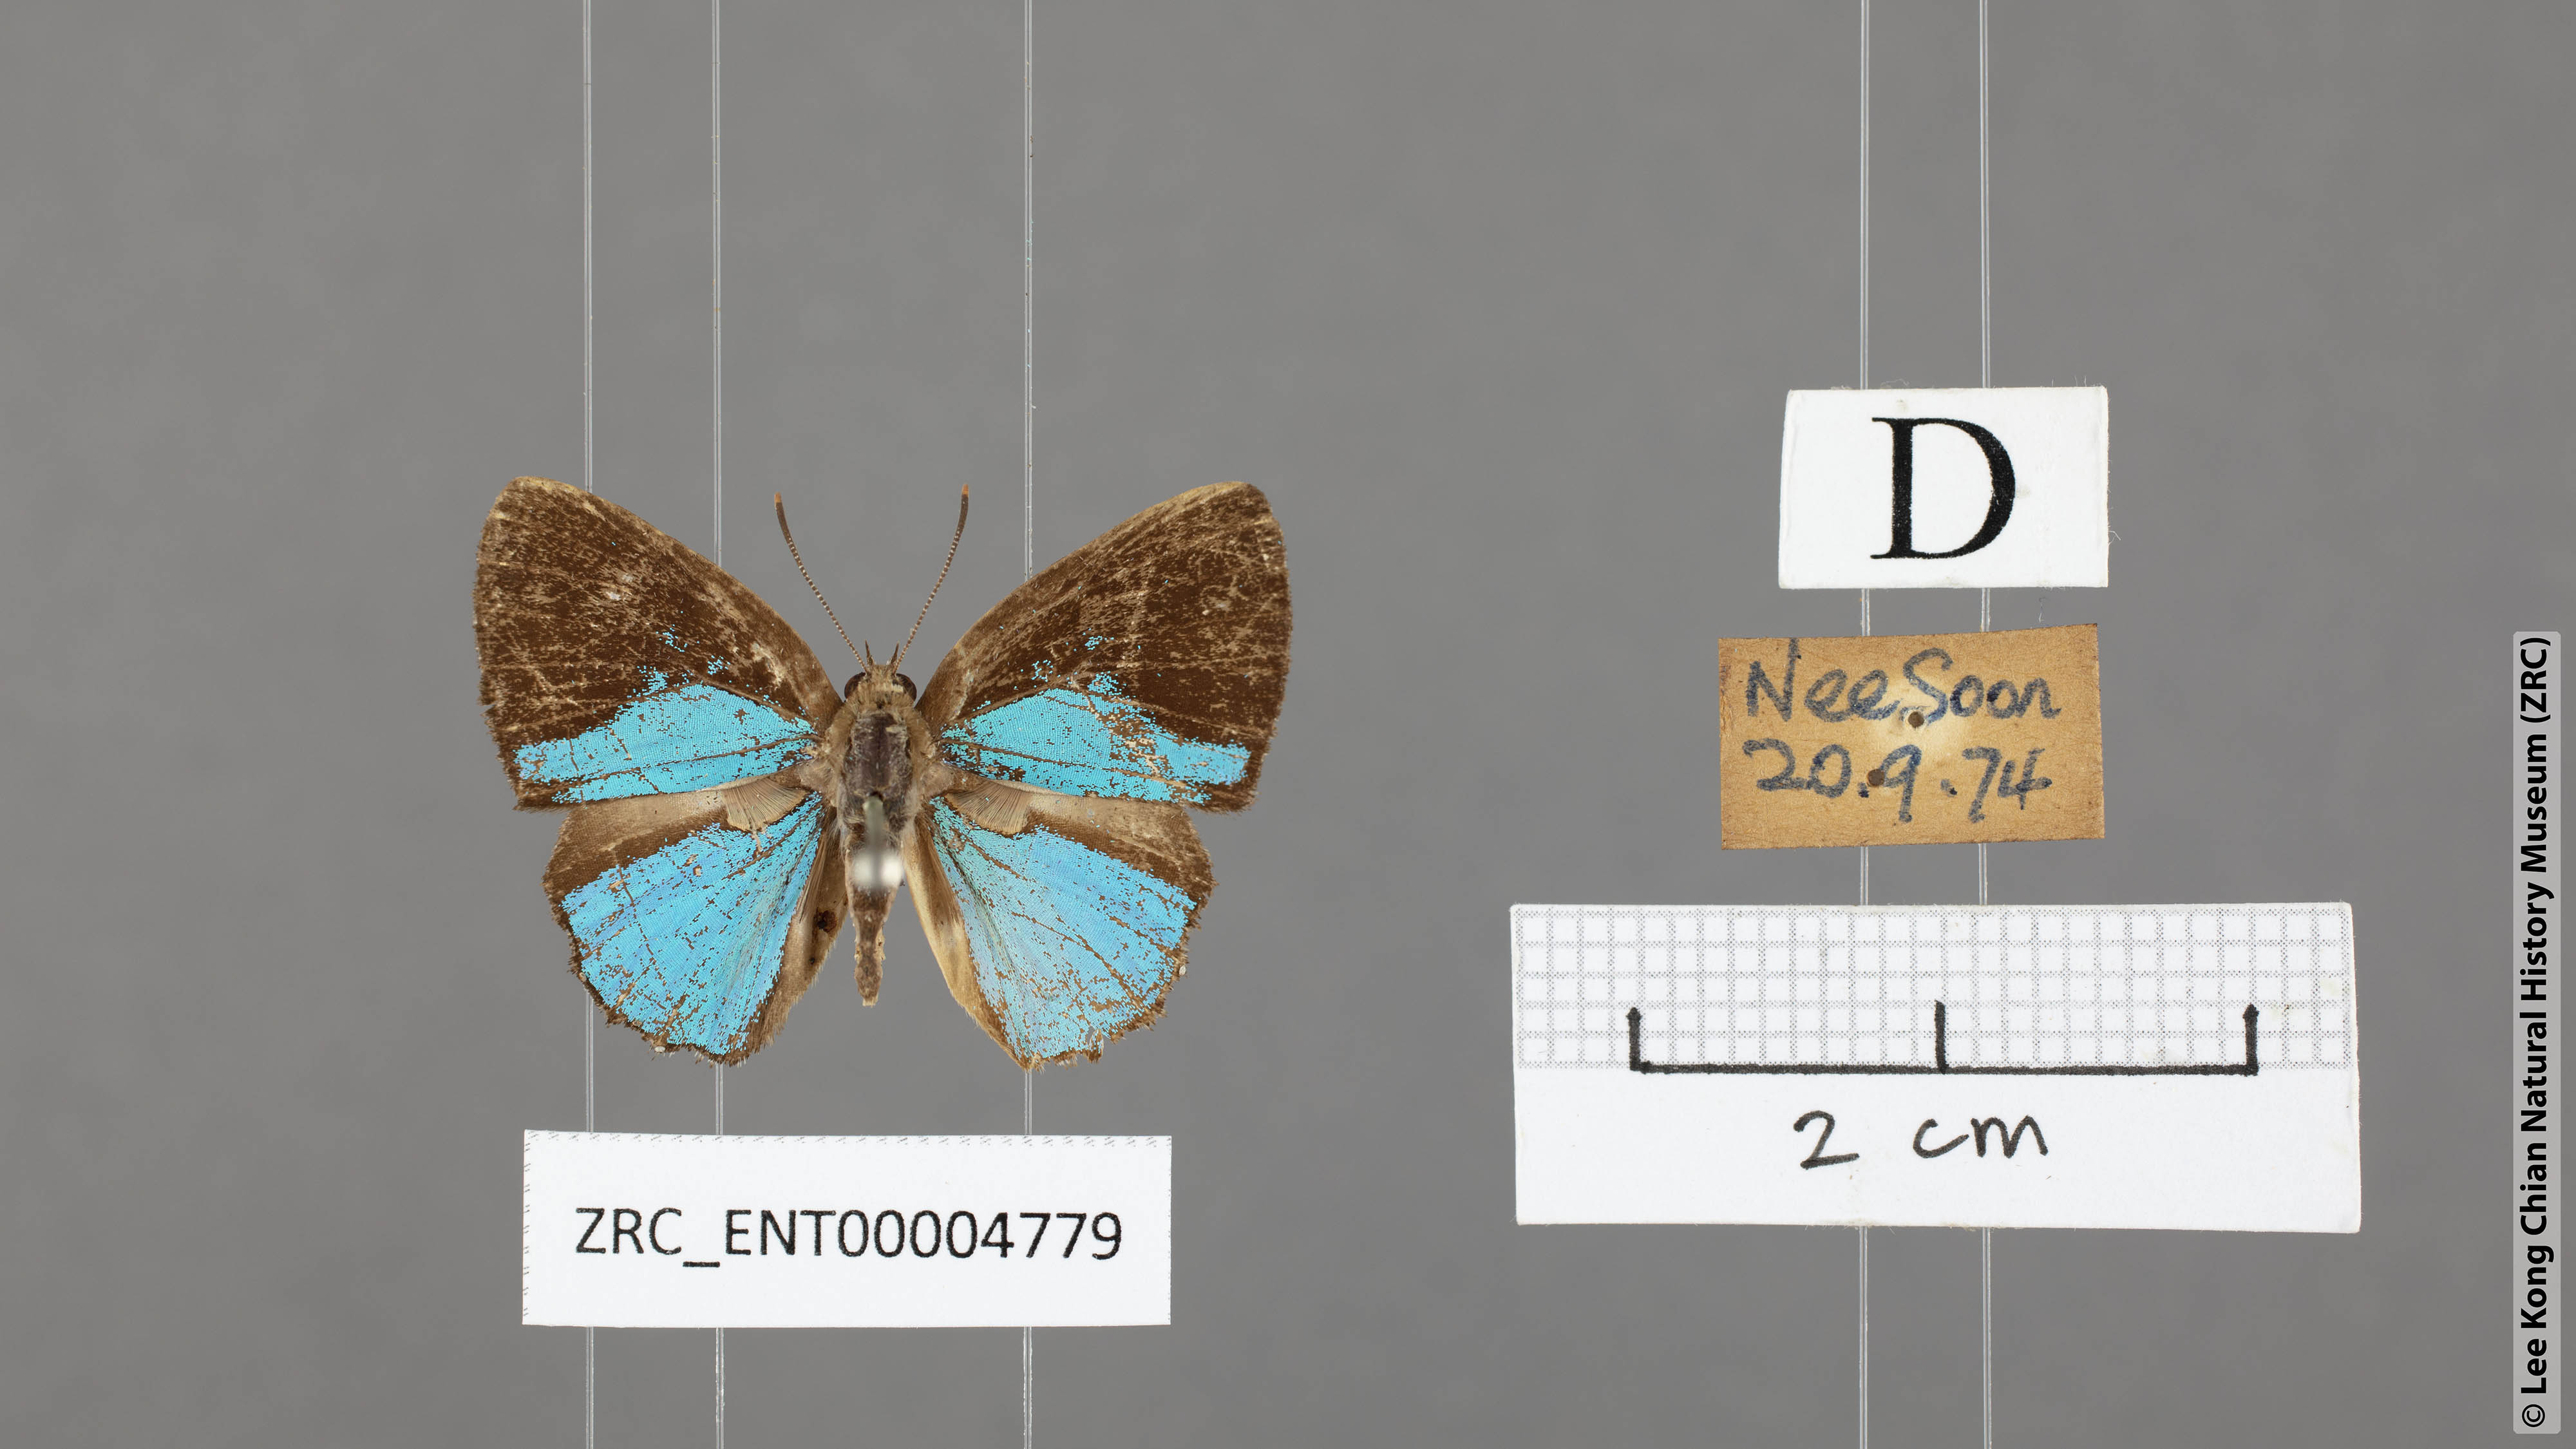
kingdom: Animalia
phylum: Arthropoda
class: Insecta
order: Lepidoptera
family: Lycaenidae
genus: Poritia
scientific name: Poritia sumatrae
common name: Sumatran gem
